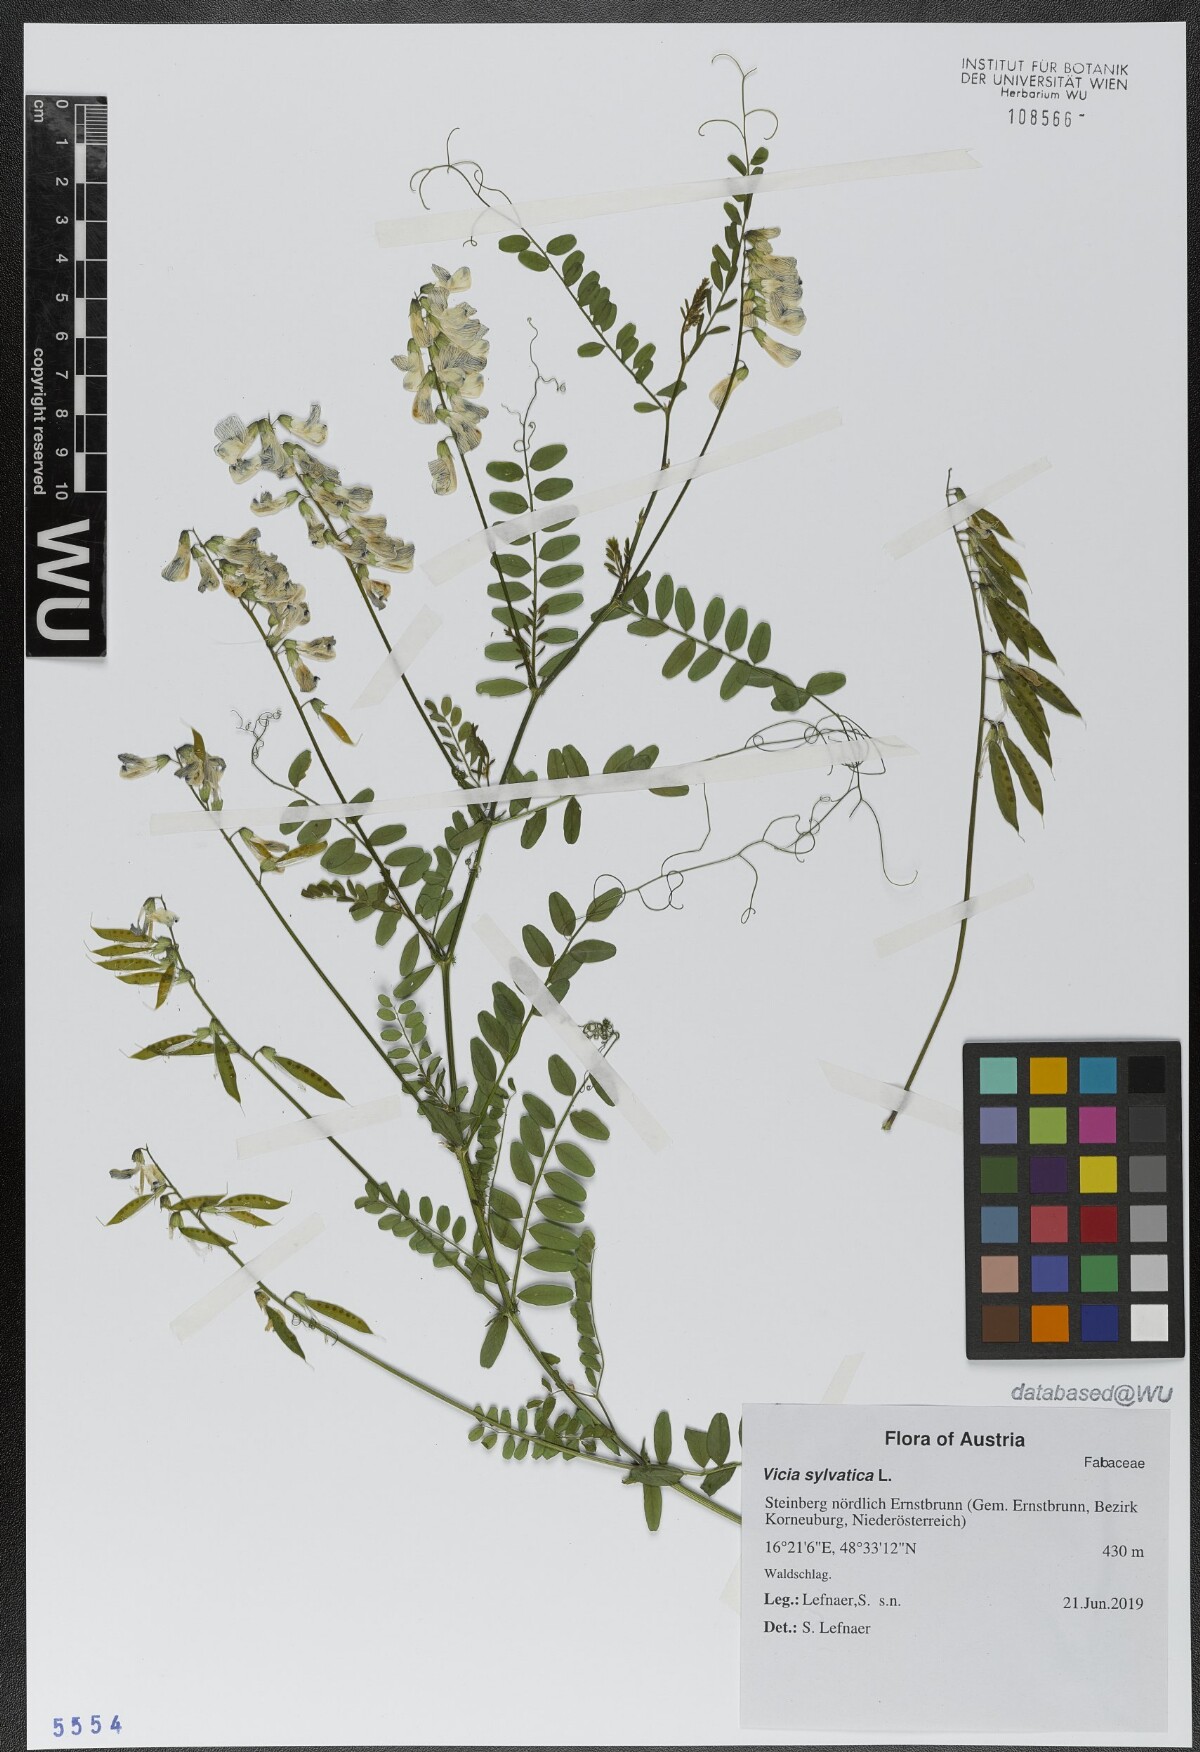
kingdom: Plantae
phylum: Tracheophyta
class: Magnoliopsida
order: Fabales
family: Fabaceae
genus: Vicia
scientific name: Vicia sylvatica
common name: Wood vetch
